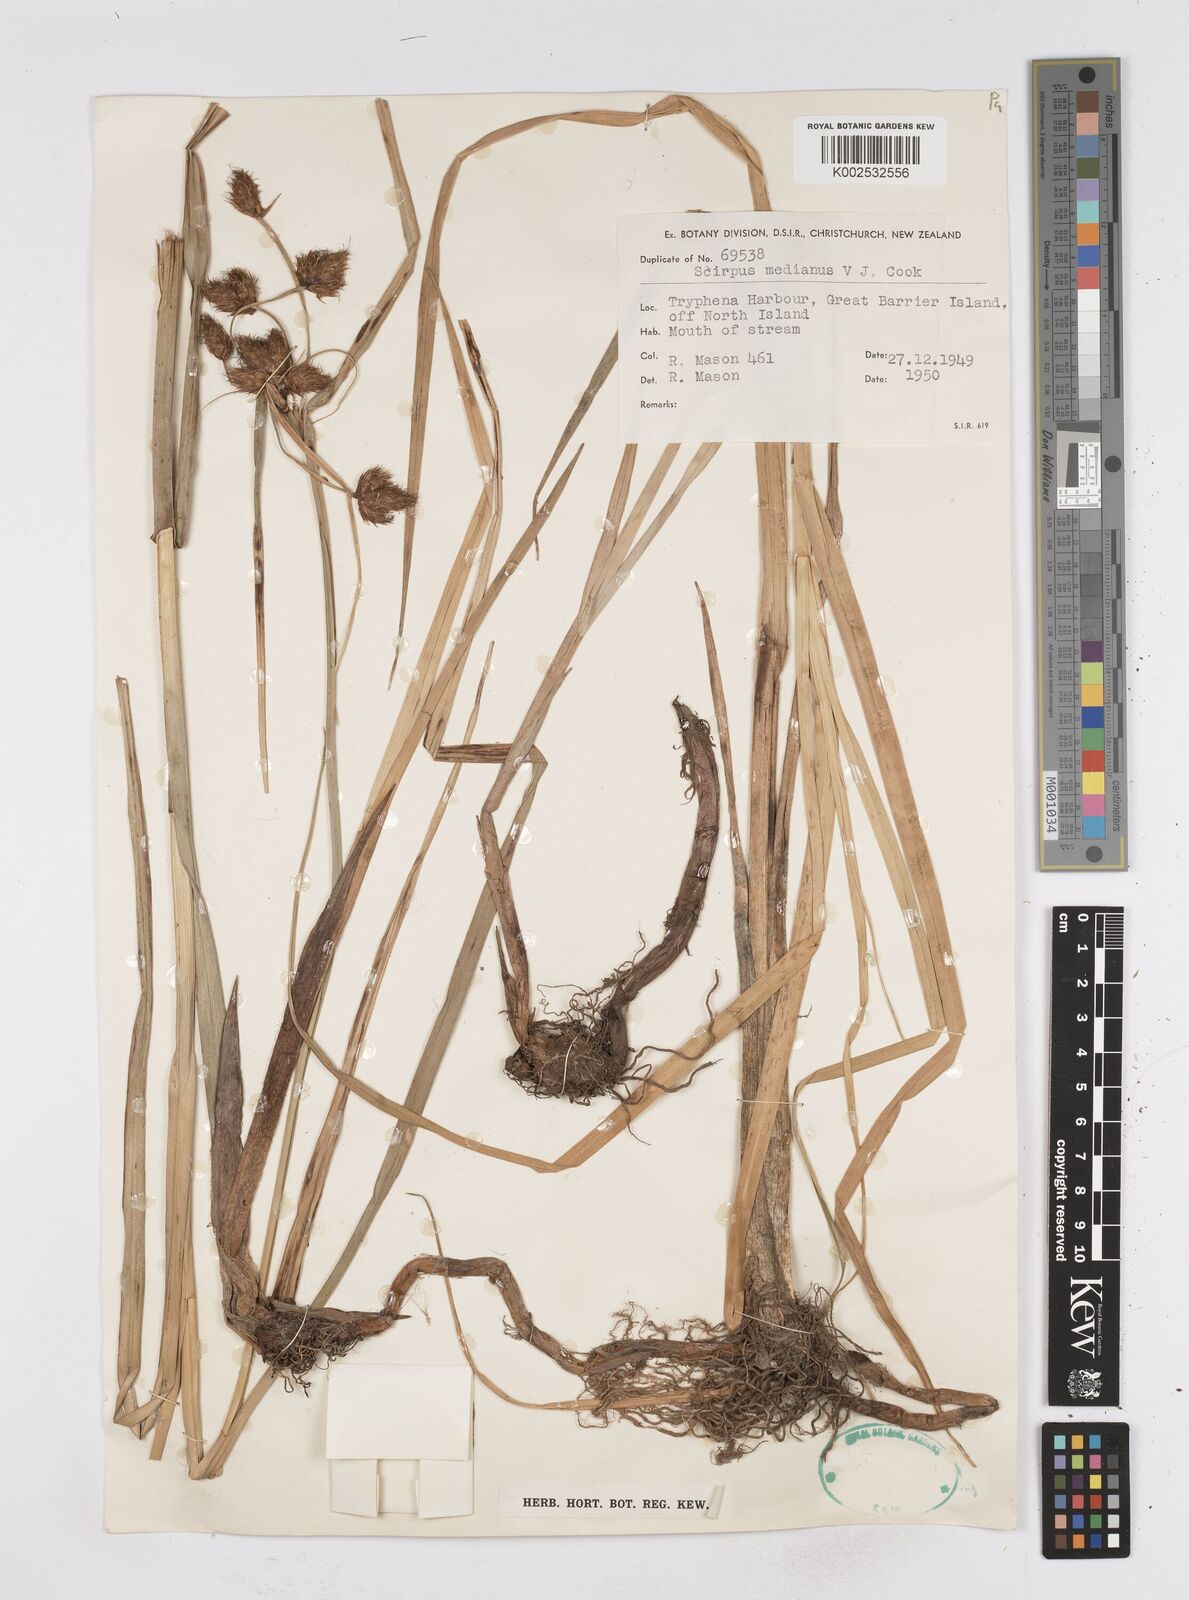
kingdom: Plantae
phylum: Tracheophyta
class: Liliopsida
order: Poales
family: Cyperaceae
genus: Bolboschoenus
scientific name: Bolboschoenus medianus
